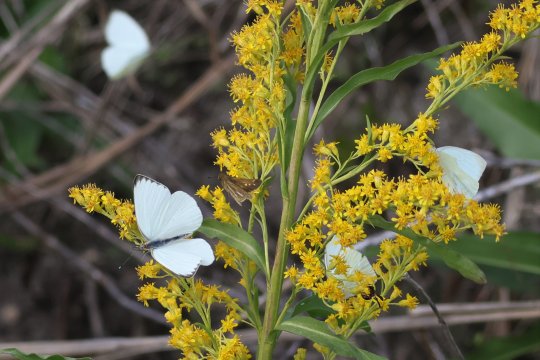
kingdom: Animalia
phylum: Arthropoda
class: Insecta
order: Lepidoptera
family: Pieridae
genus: Ascia
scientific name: Ascia monuste
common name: Great Southern White
